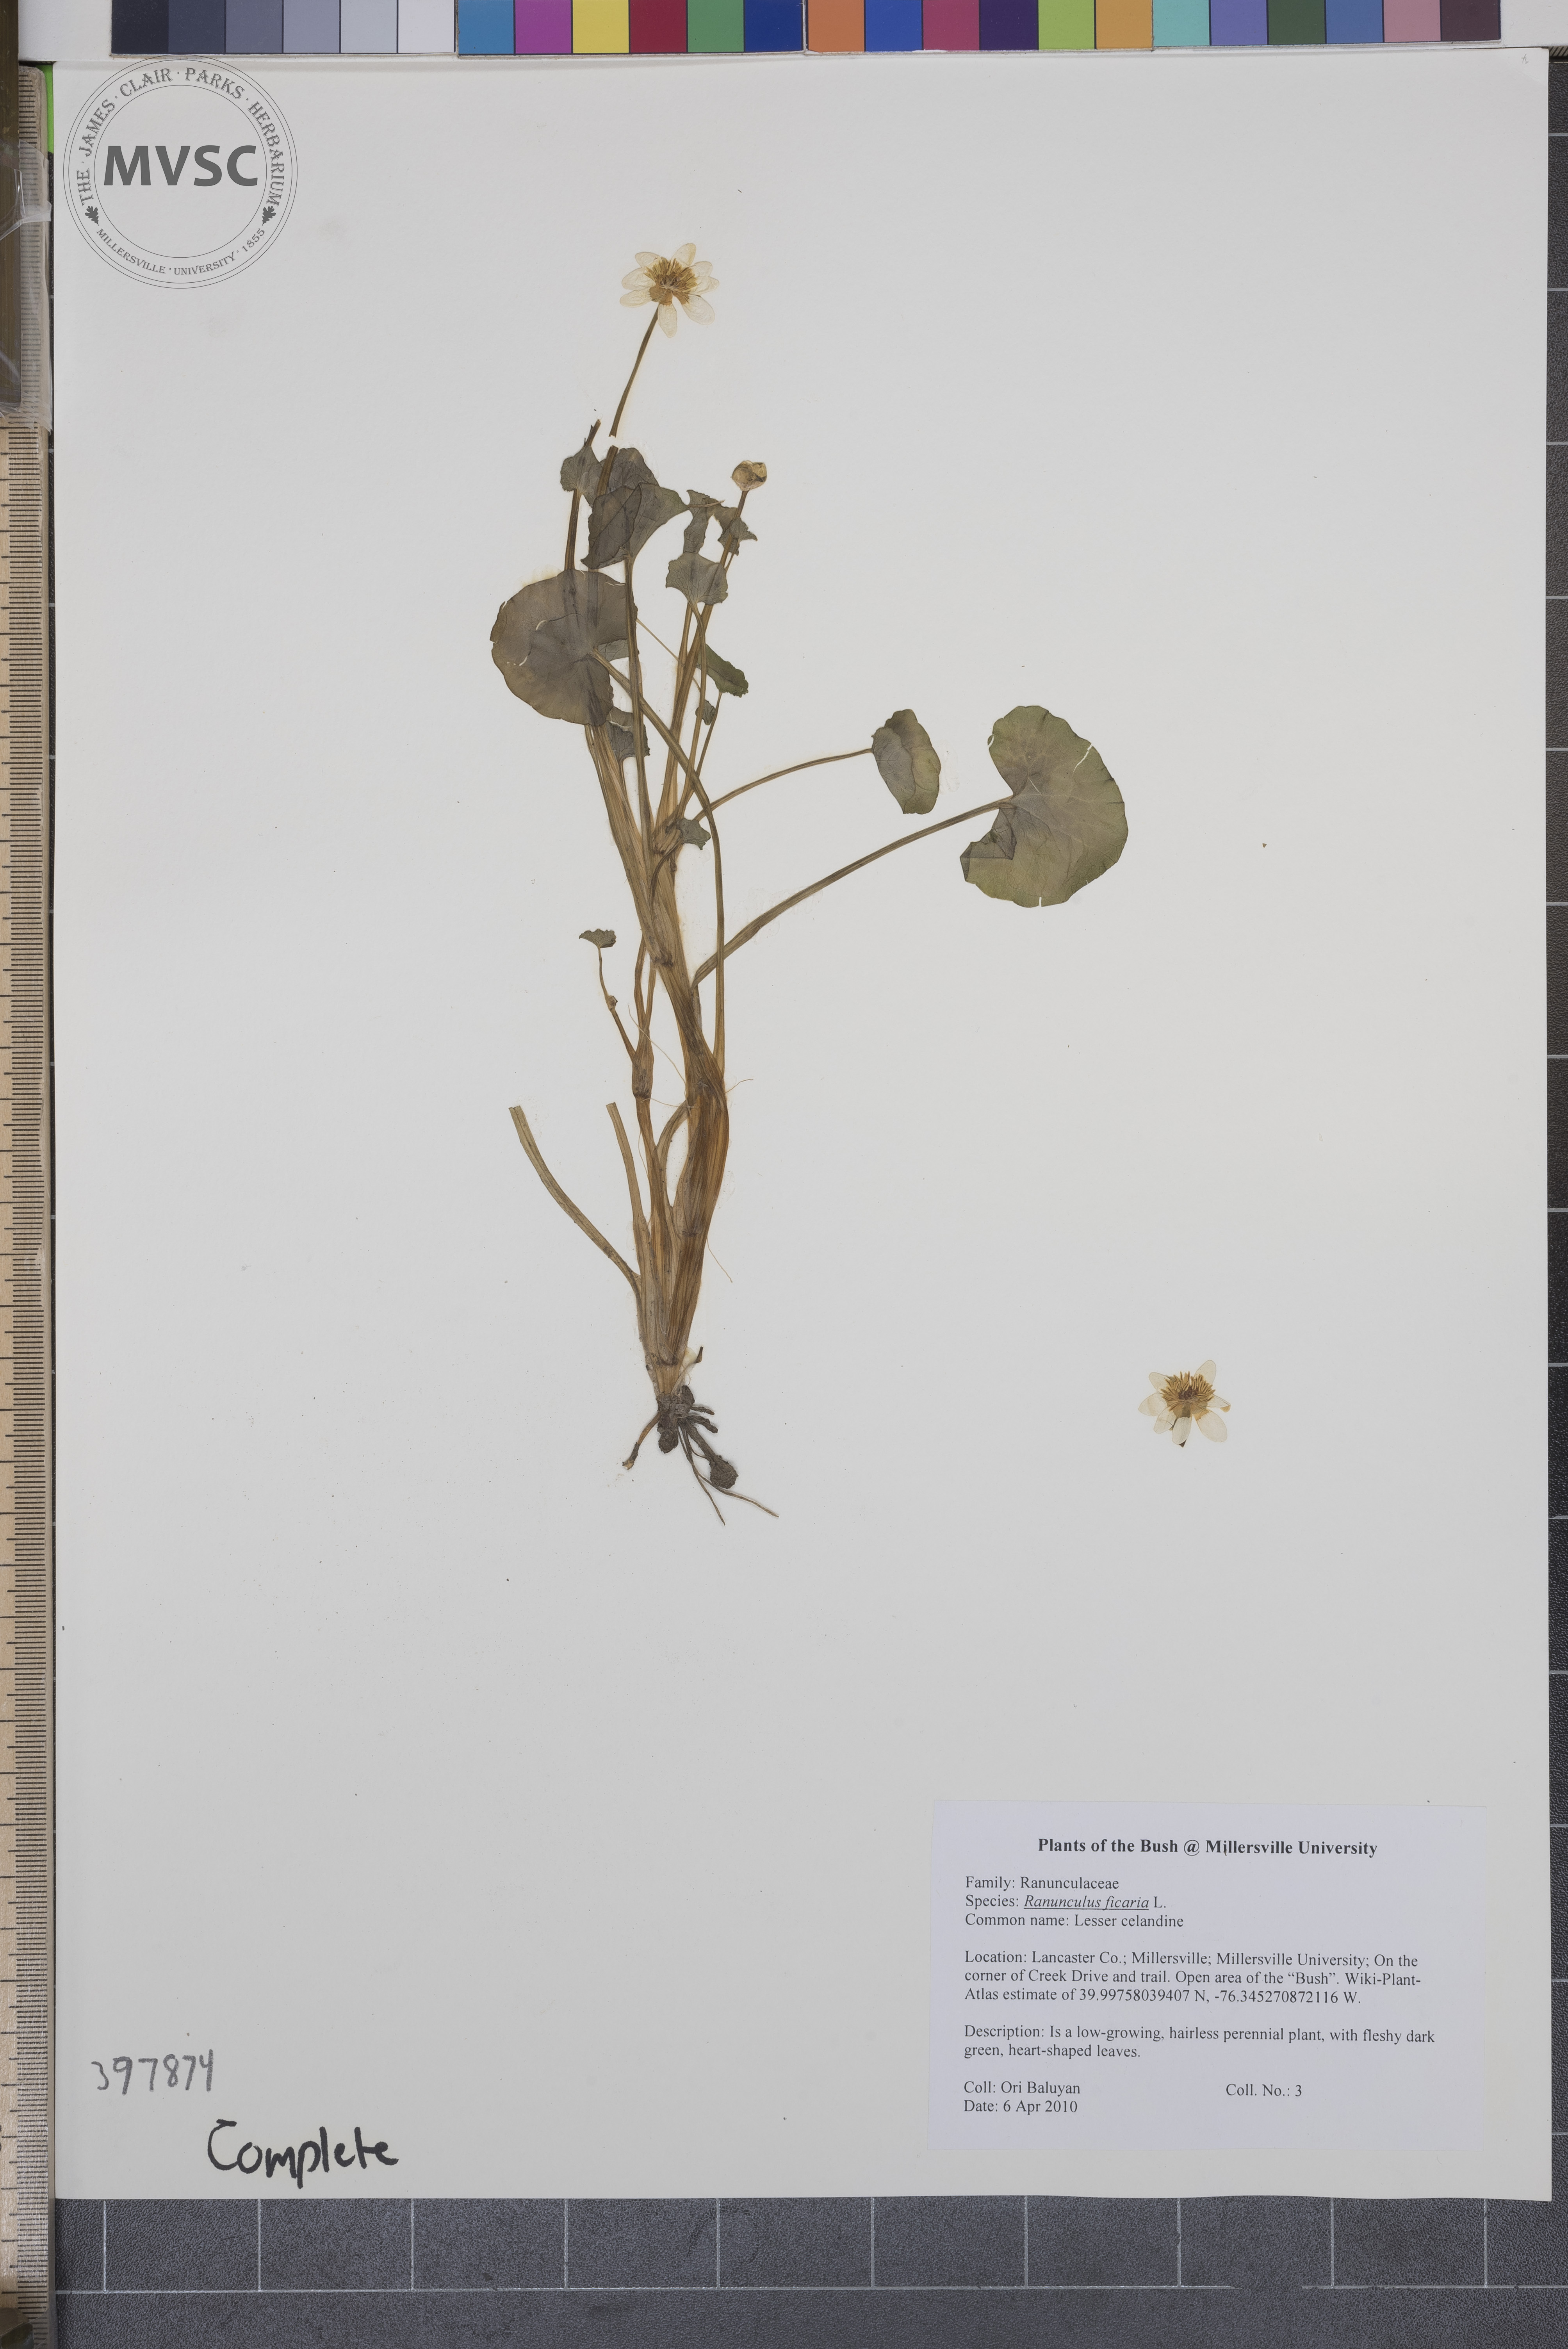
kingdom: Plantae
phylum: Tracheophyta
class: Magnoliopsida
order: Ranunculales
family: Ranunculaceae
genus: Ranunculus
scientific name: Ranunculus ficaria
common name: Lesser celandine
